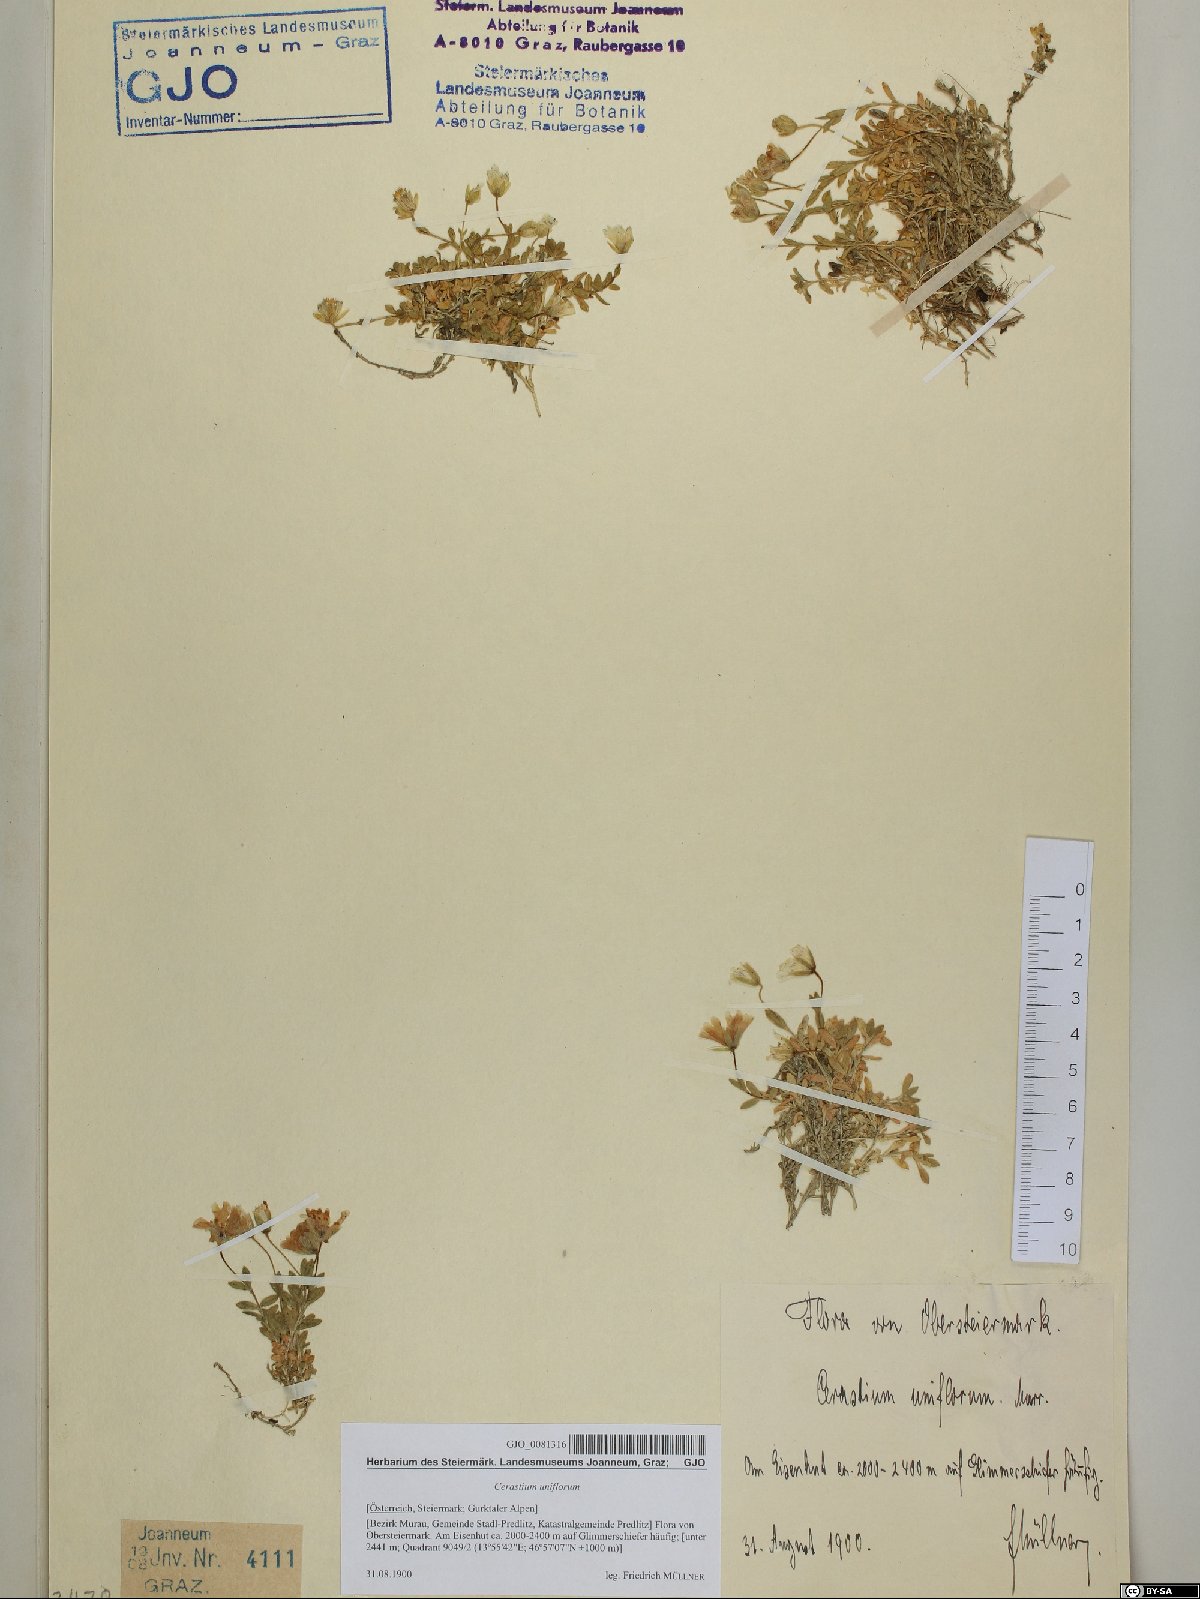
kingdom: Plantae
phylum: Tracheophyta
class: Magnoliopsida
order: Caryophyllales
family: Caryophyllaceae
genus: Cerastium
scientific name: Cerastium uniflorum
